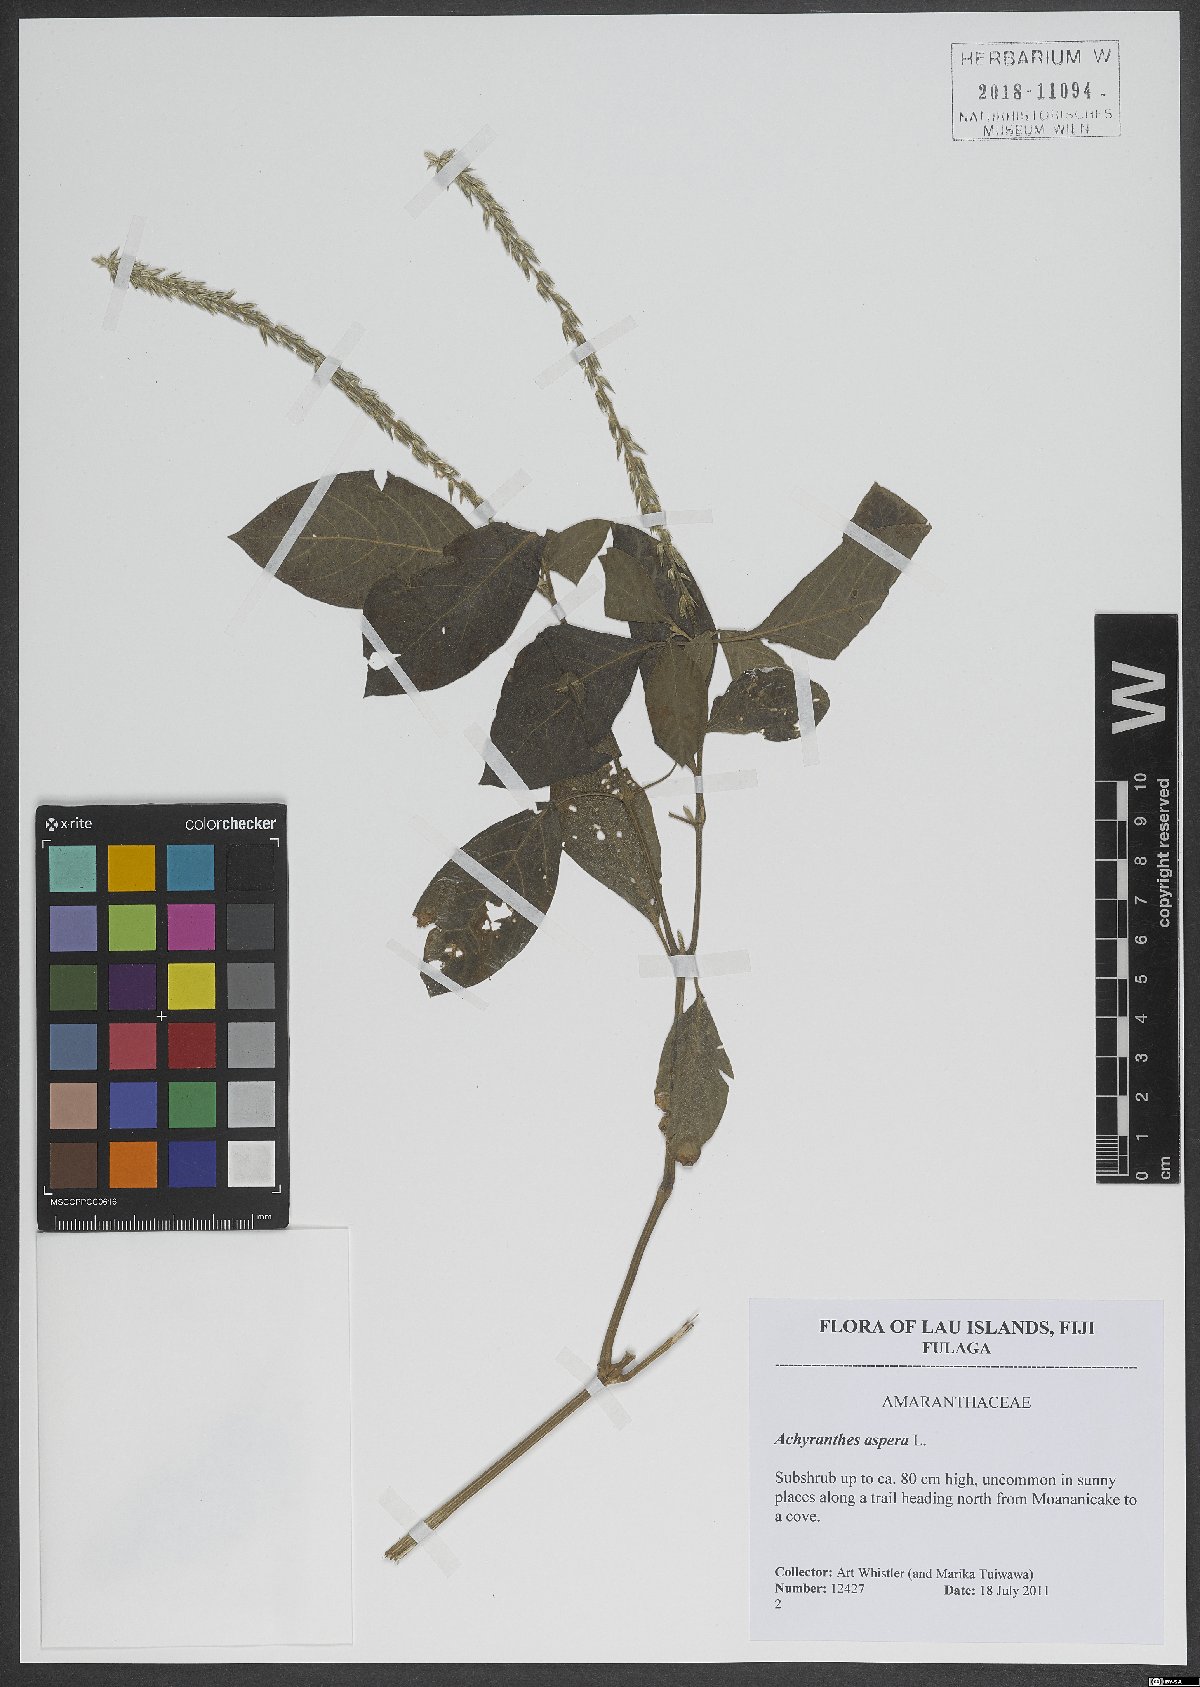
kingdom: Plantae
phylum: Tracheophyta
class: Magnoliopsida
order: Caryophyllales
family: Amaranthaceae
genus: Achyranthes
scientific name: Achyranthes aspera
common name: Devil's horsewhip
